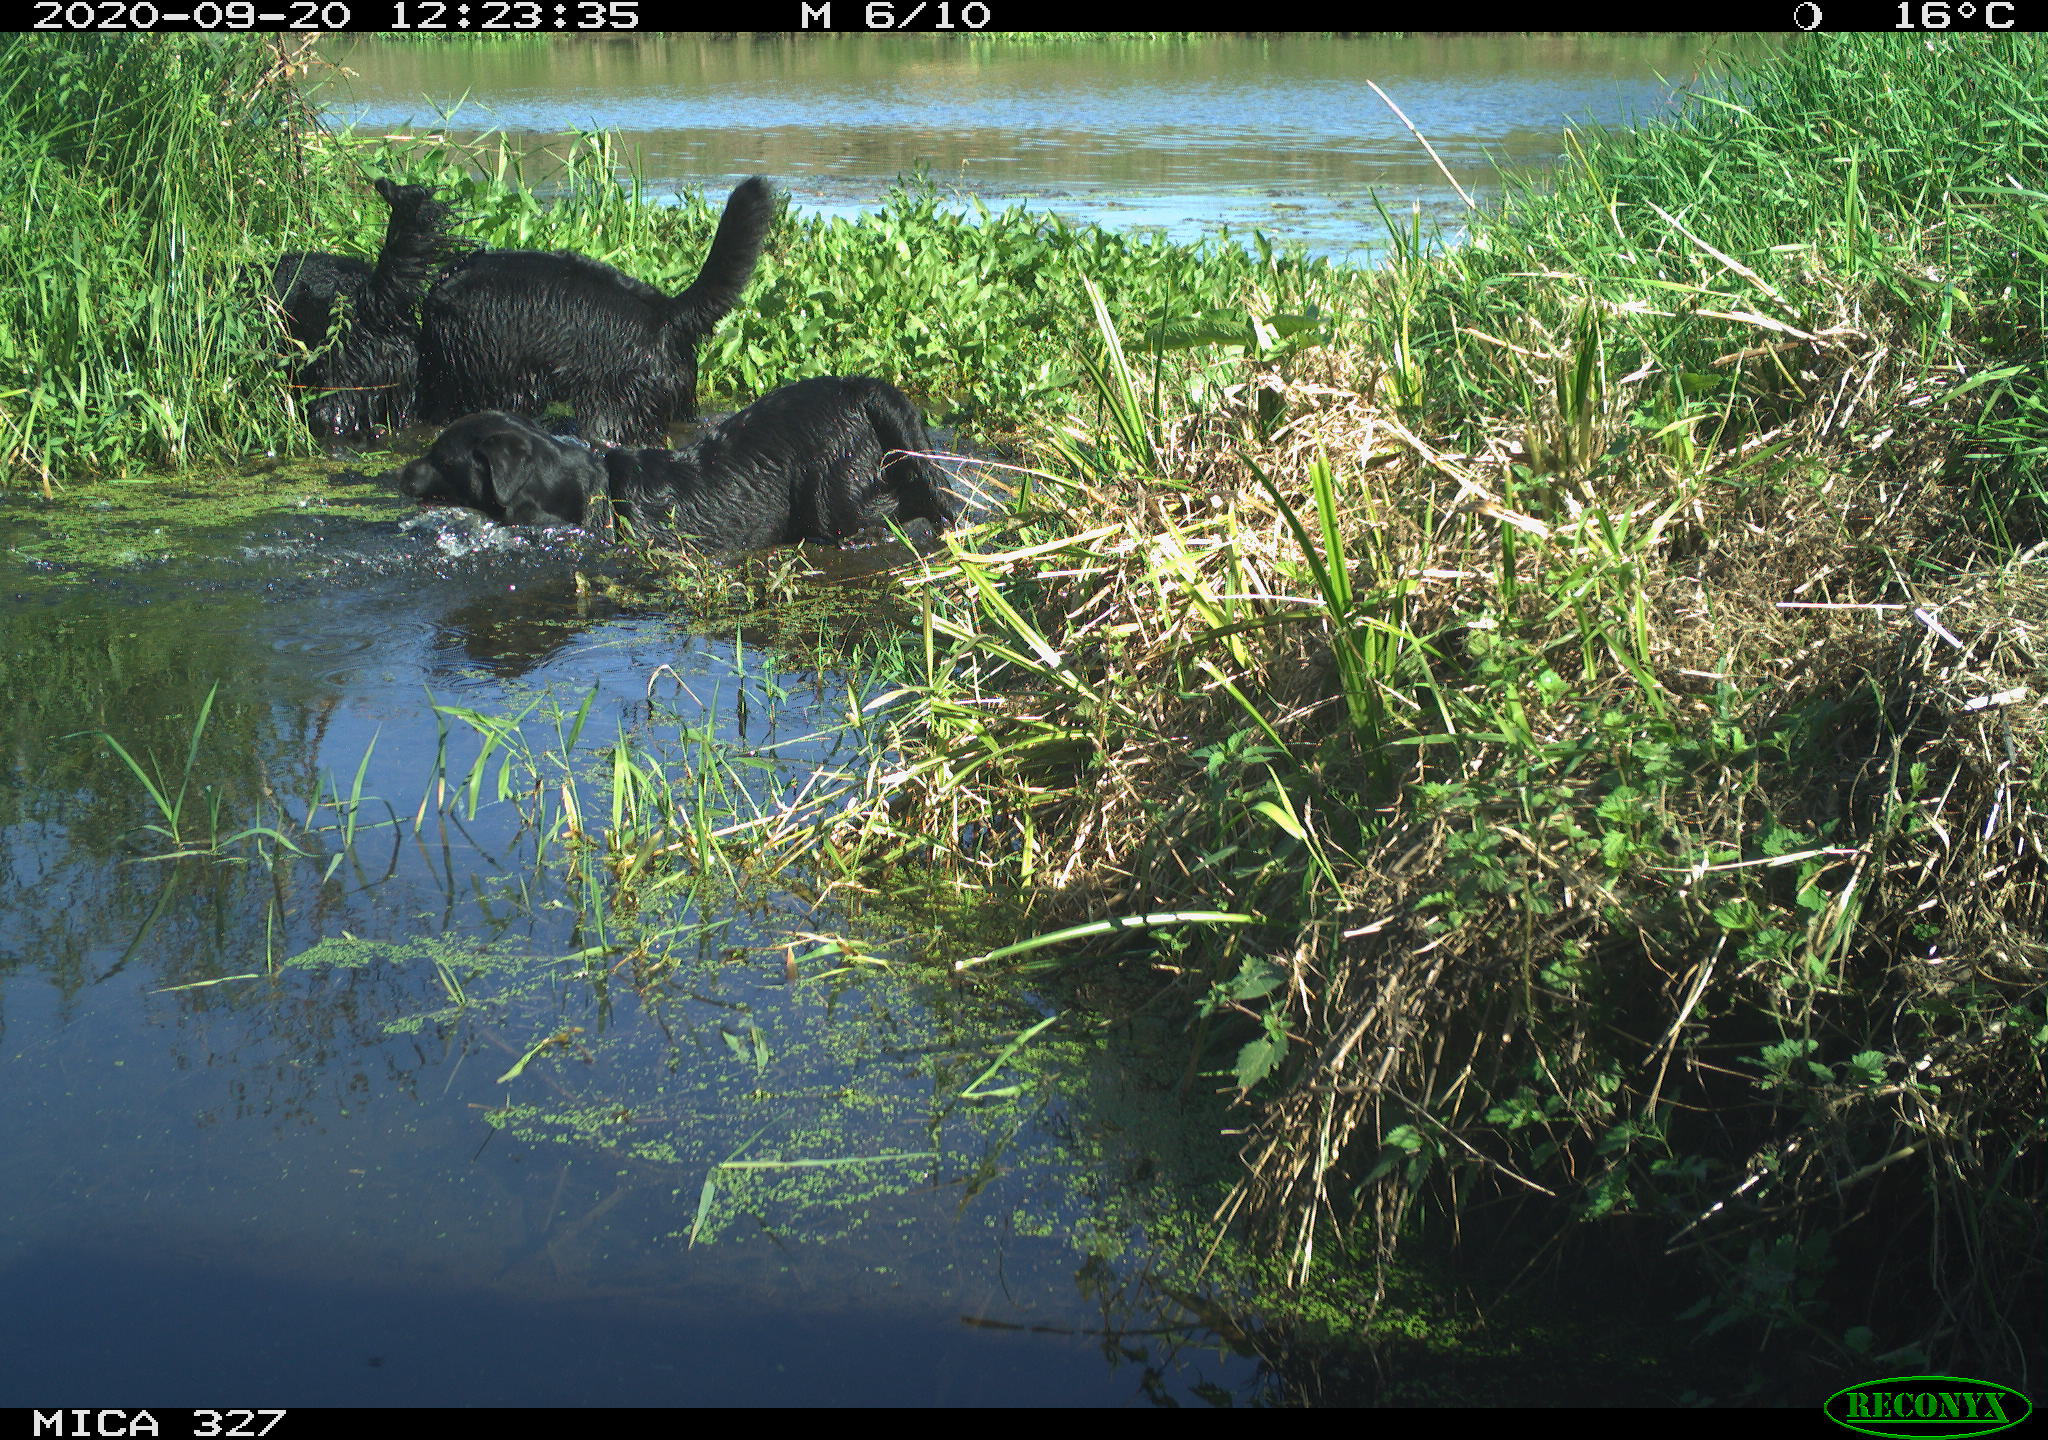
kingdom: Animalia
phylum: Chordata
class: Mammalia
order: Carnivora
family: Canidae
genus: Canis
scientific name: Canis lupus
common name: Gray wolf
